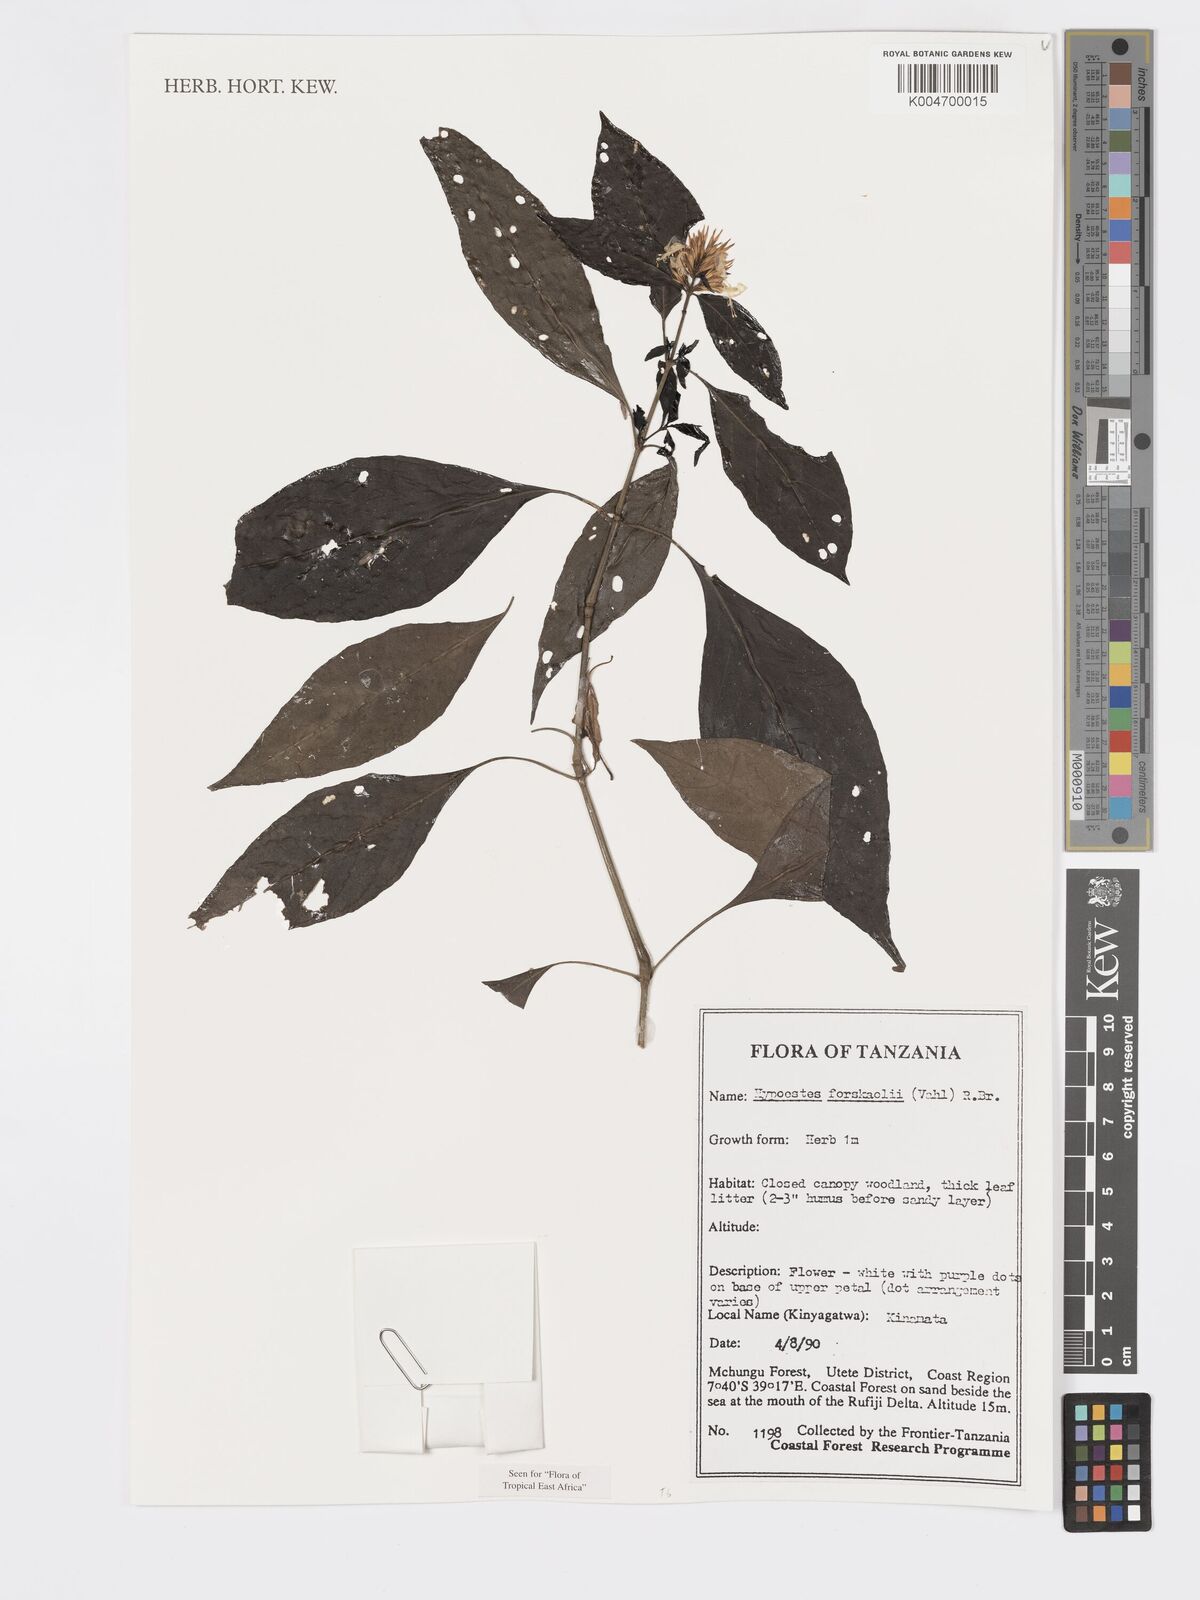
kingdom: Plantae
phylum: Tracheophyta
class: Magnoliopsida
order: Lamiales
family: Acanthaceae
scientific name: Acanthaceae
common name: Acanthaceae
